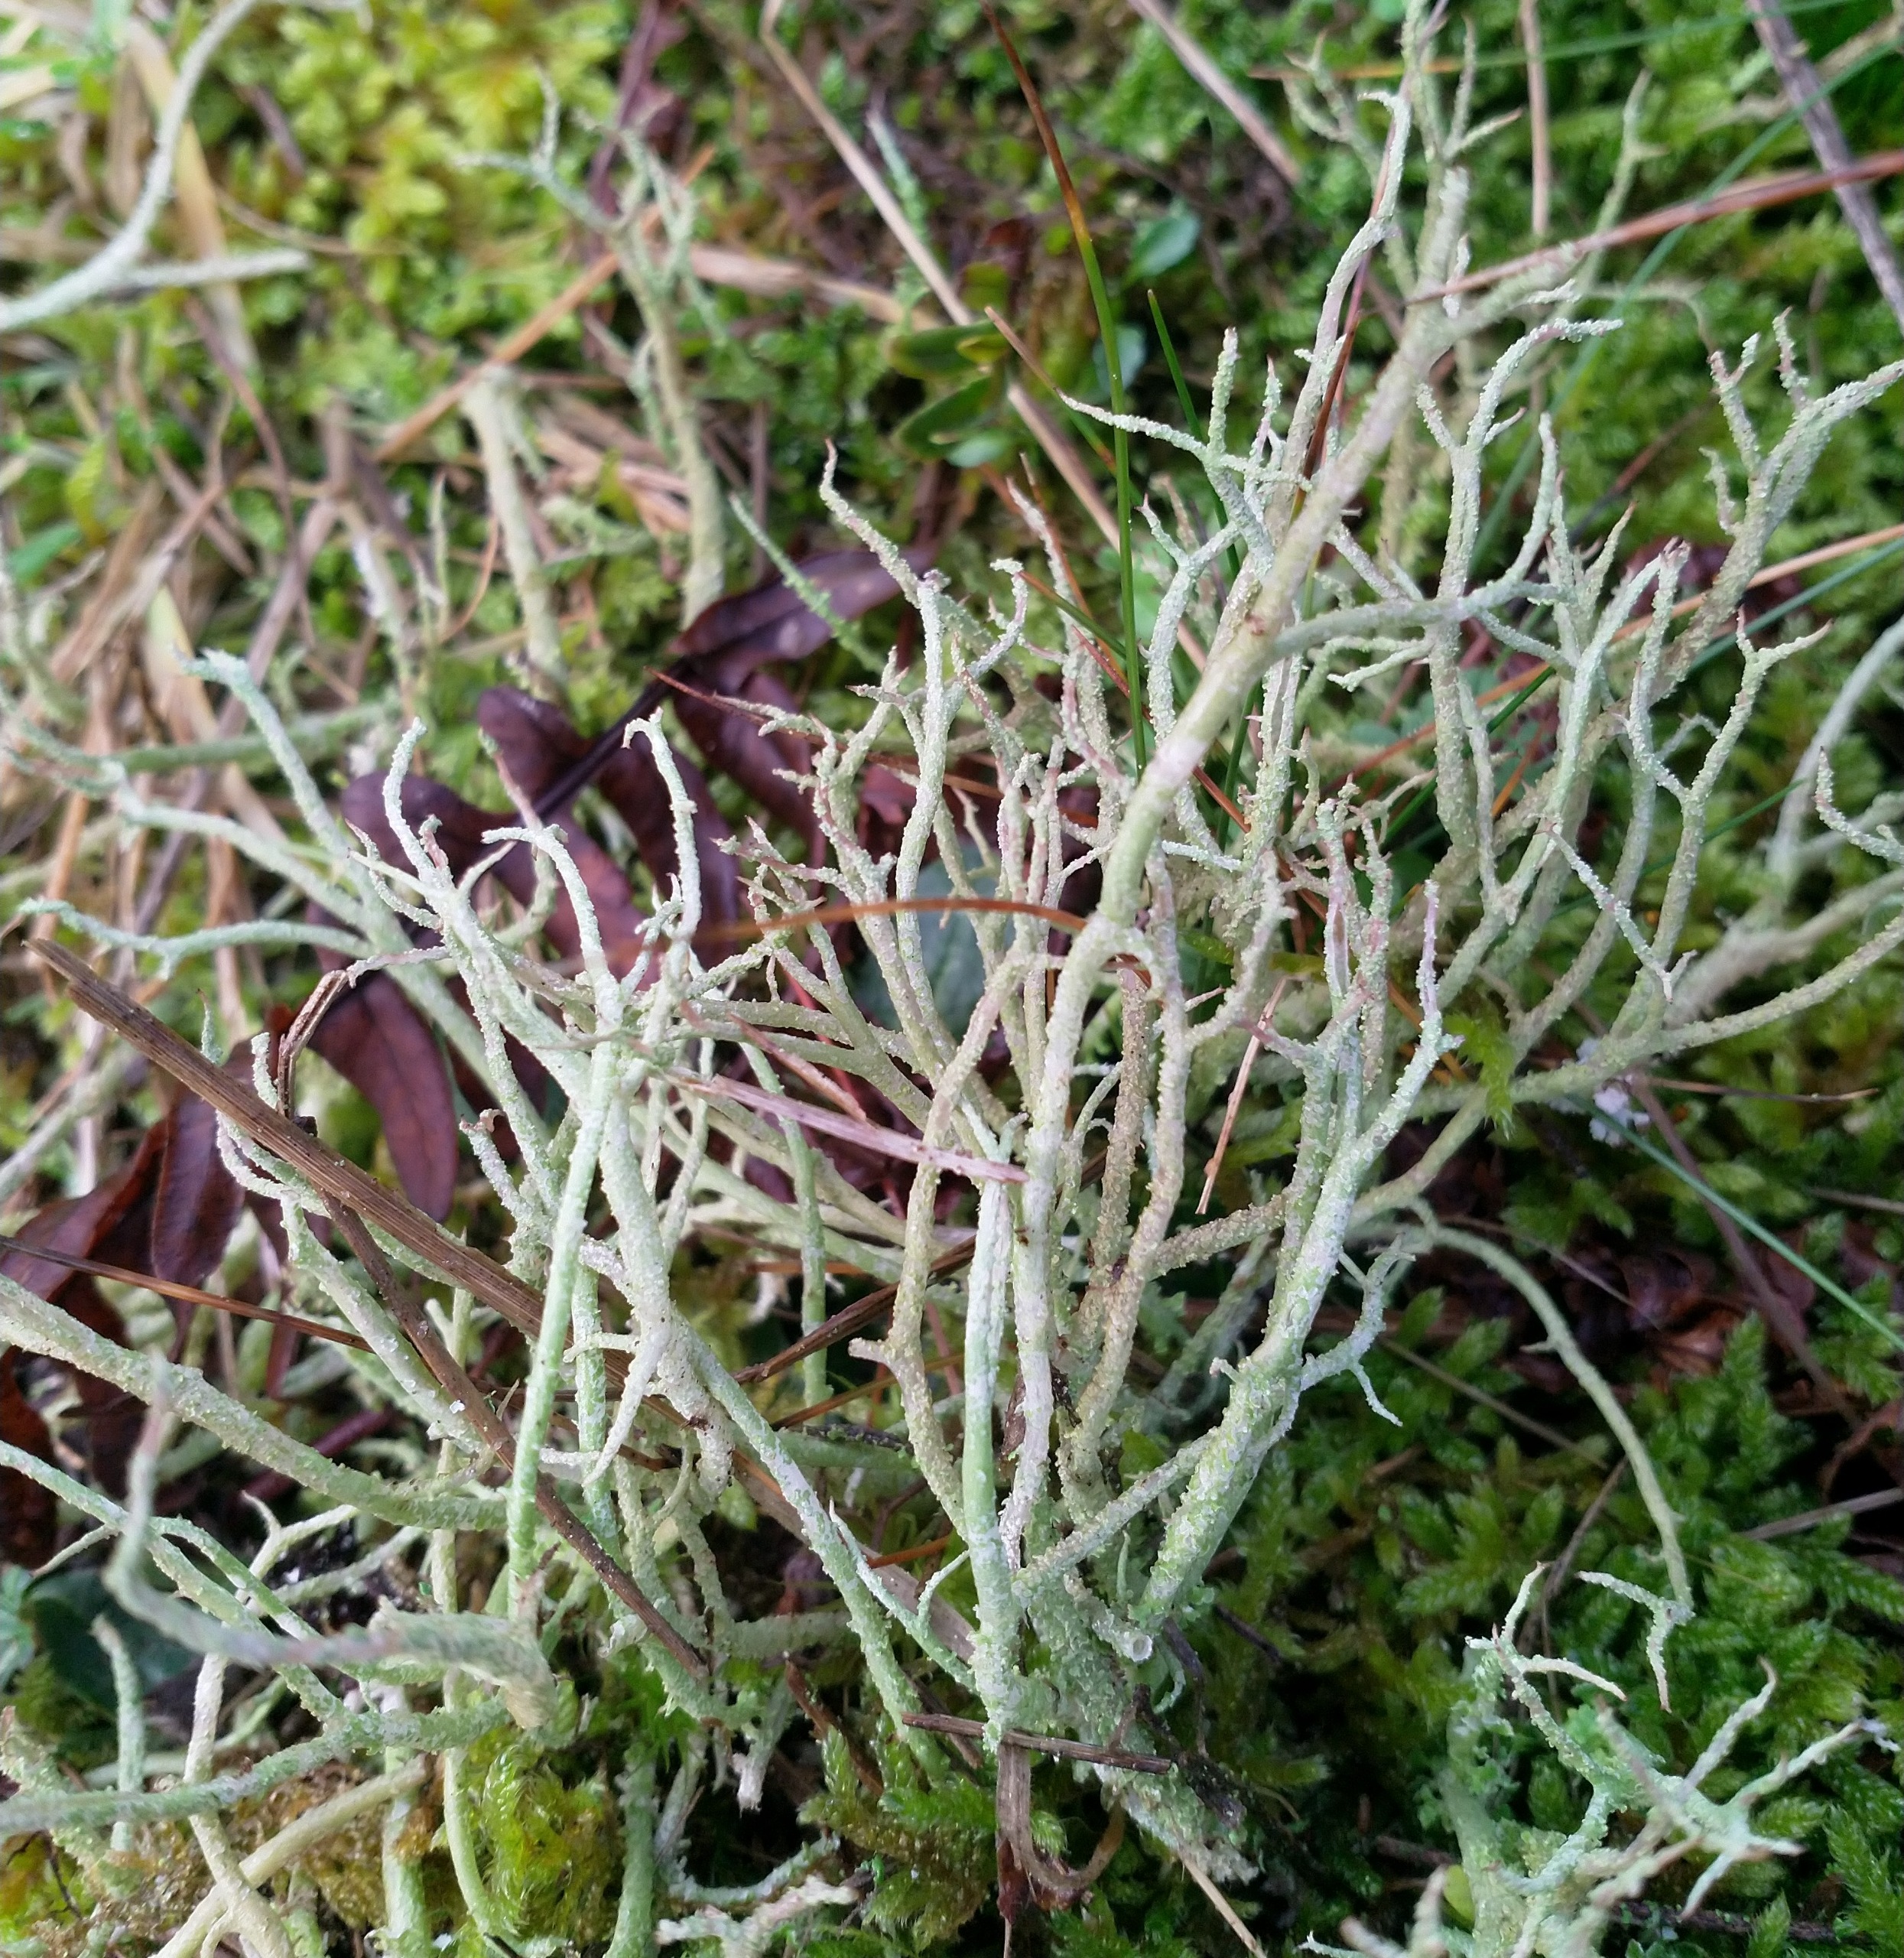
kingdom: Fungi
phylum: Ascomycota
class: Lecanoromycetes
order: Lecanorales
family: Cladoniaceae
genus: Cladonia
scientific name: Cladonia scabriuscula
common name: Ru bægerlav
